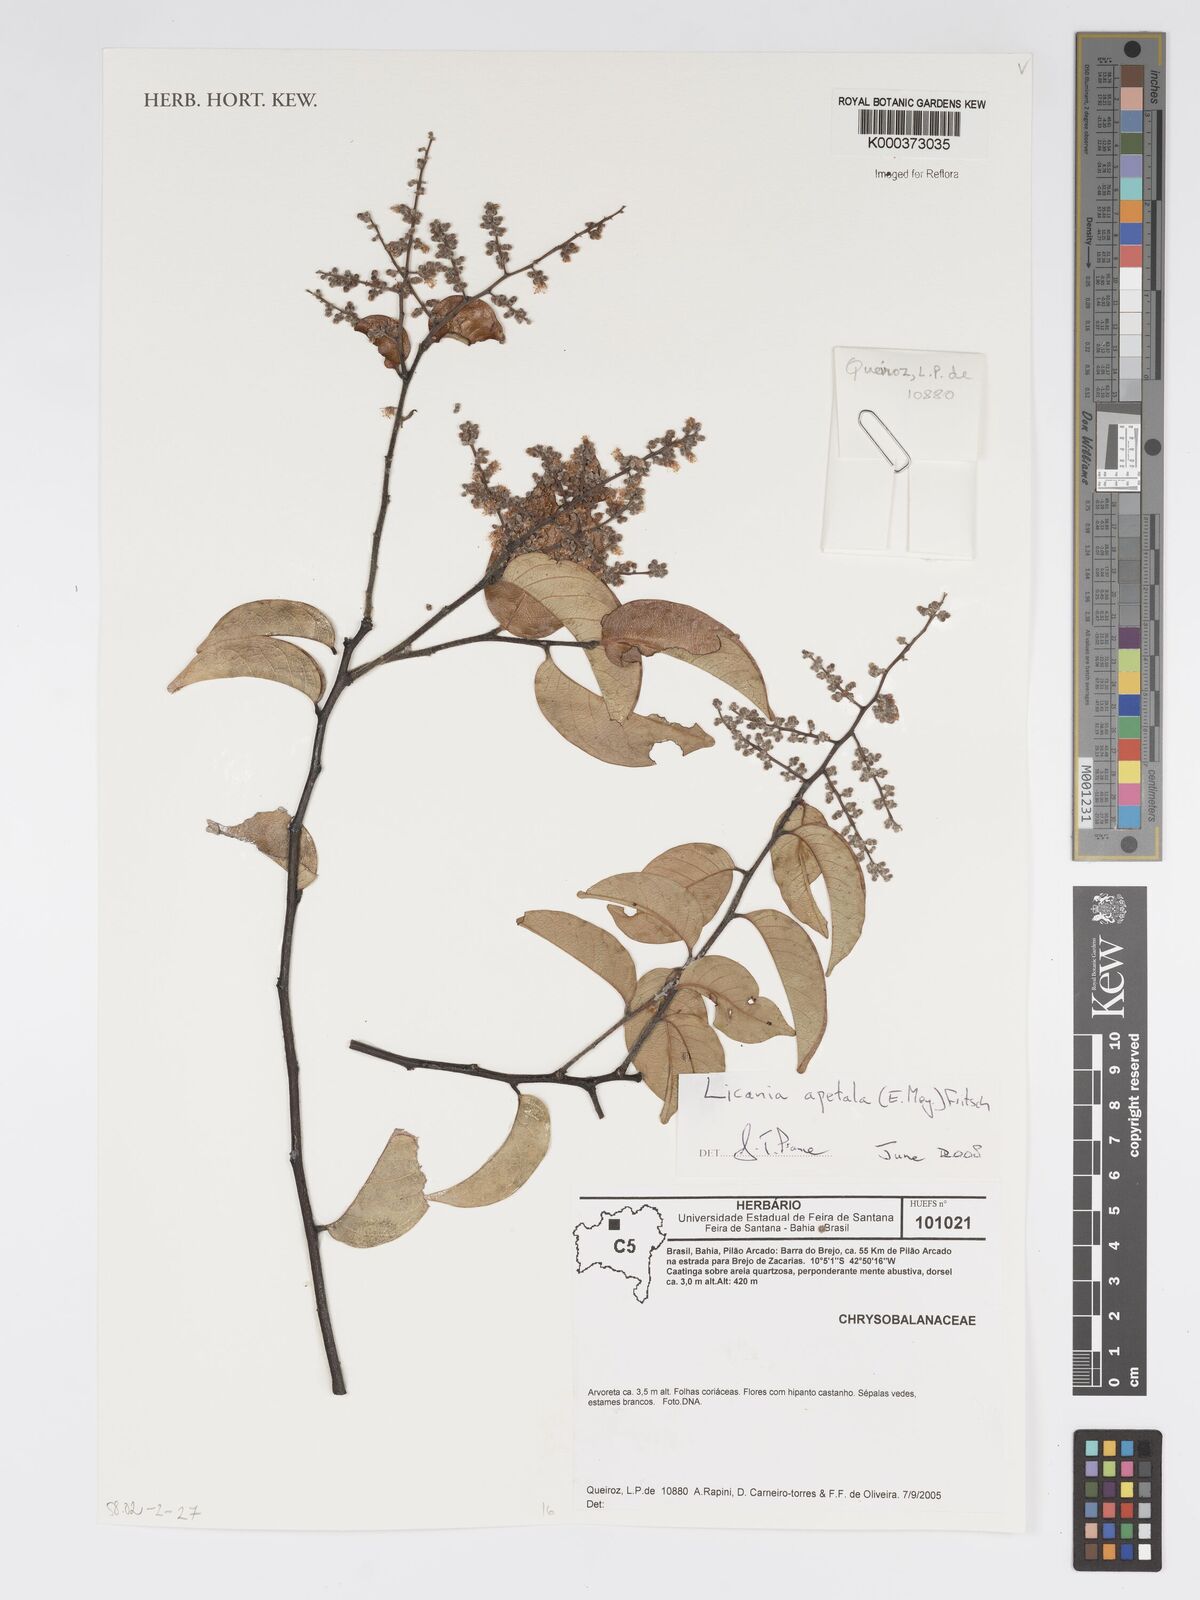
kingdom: Plantae
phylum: Tracheophyta
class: Magnoliopsida
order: Malpighiales
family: Chrysobalanaceae
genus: Leptobalanus
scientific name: Leptobalanus apetalus
